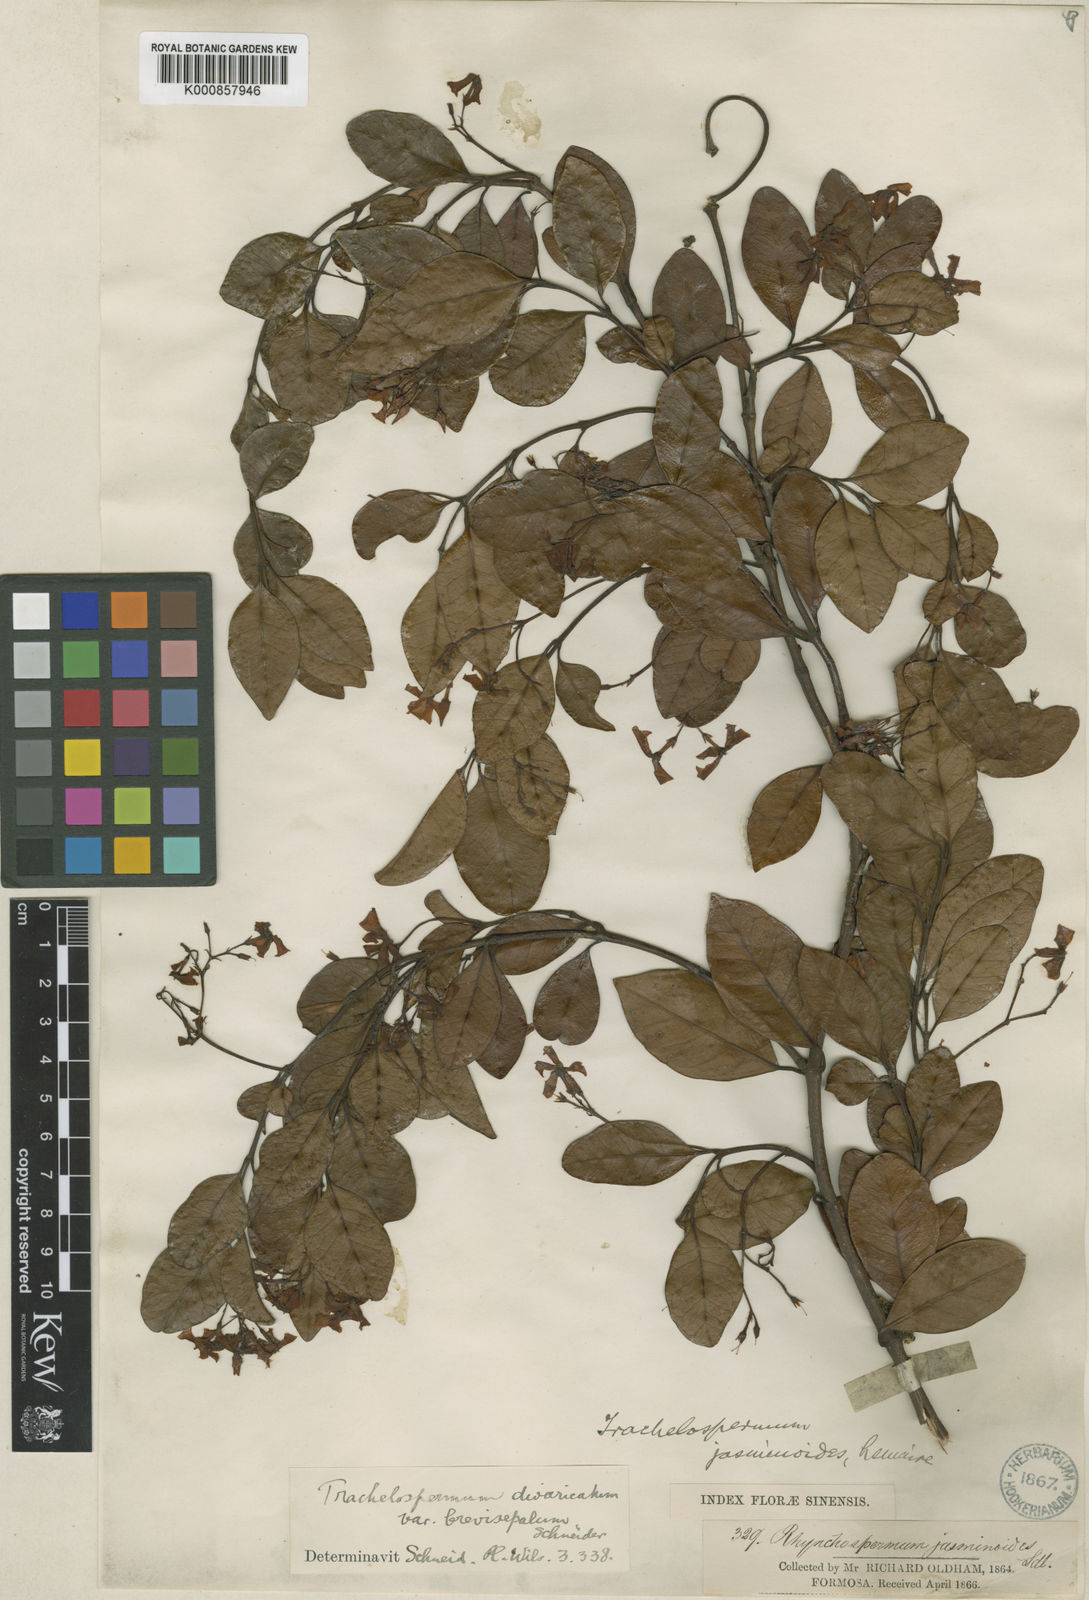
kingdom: Plantae
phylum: Tracheophyta
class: Magnoliopsida
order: Gentianales
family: Apocynaceae
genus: Trachelospermum
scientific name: Trachelospermum asiaticum
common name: Asiatic jasmine
